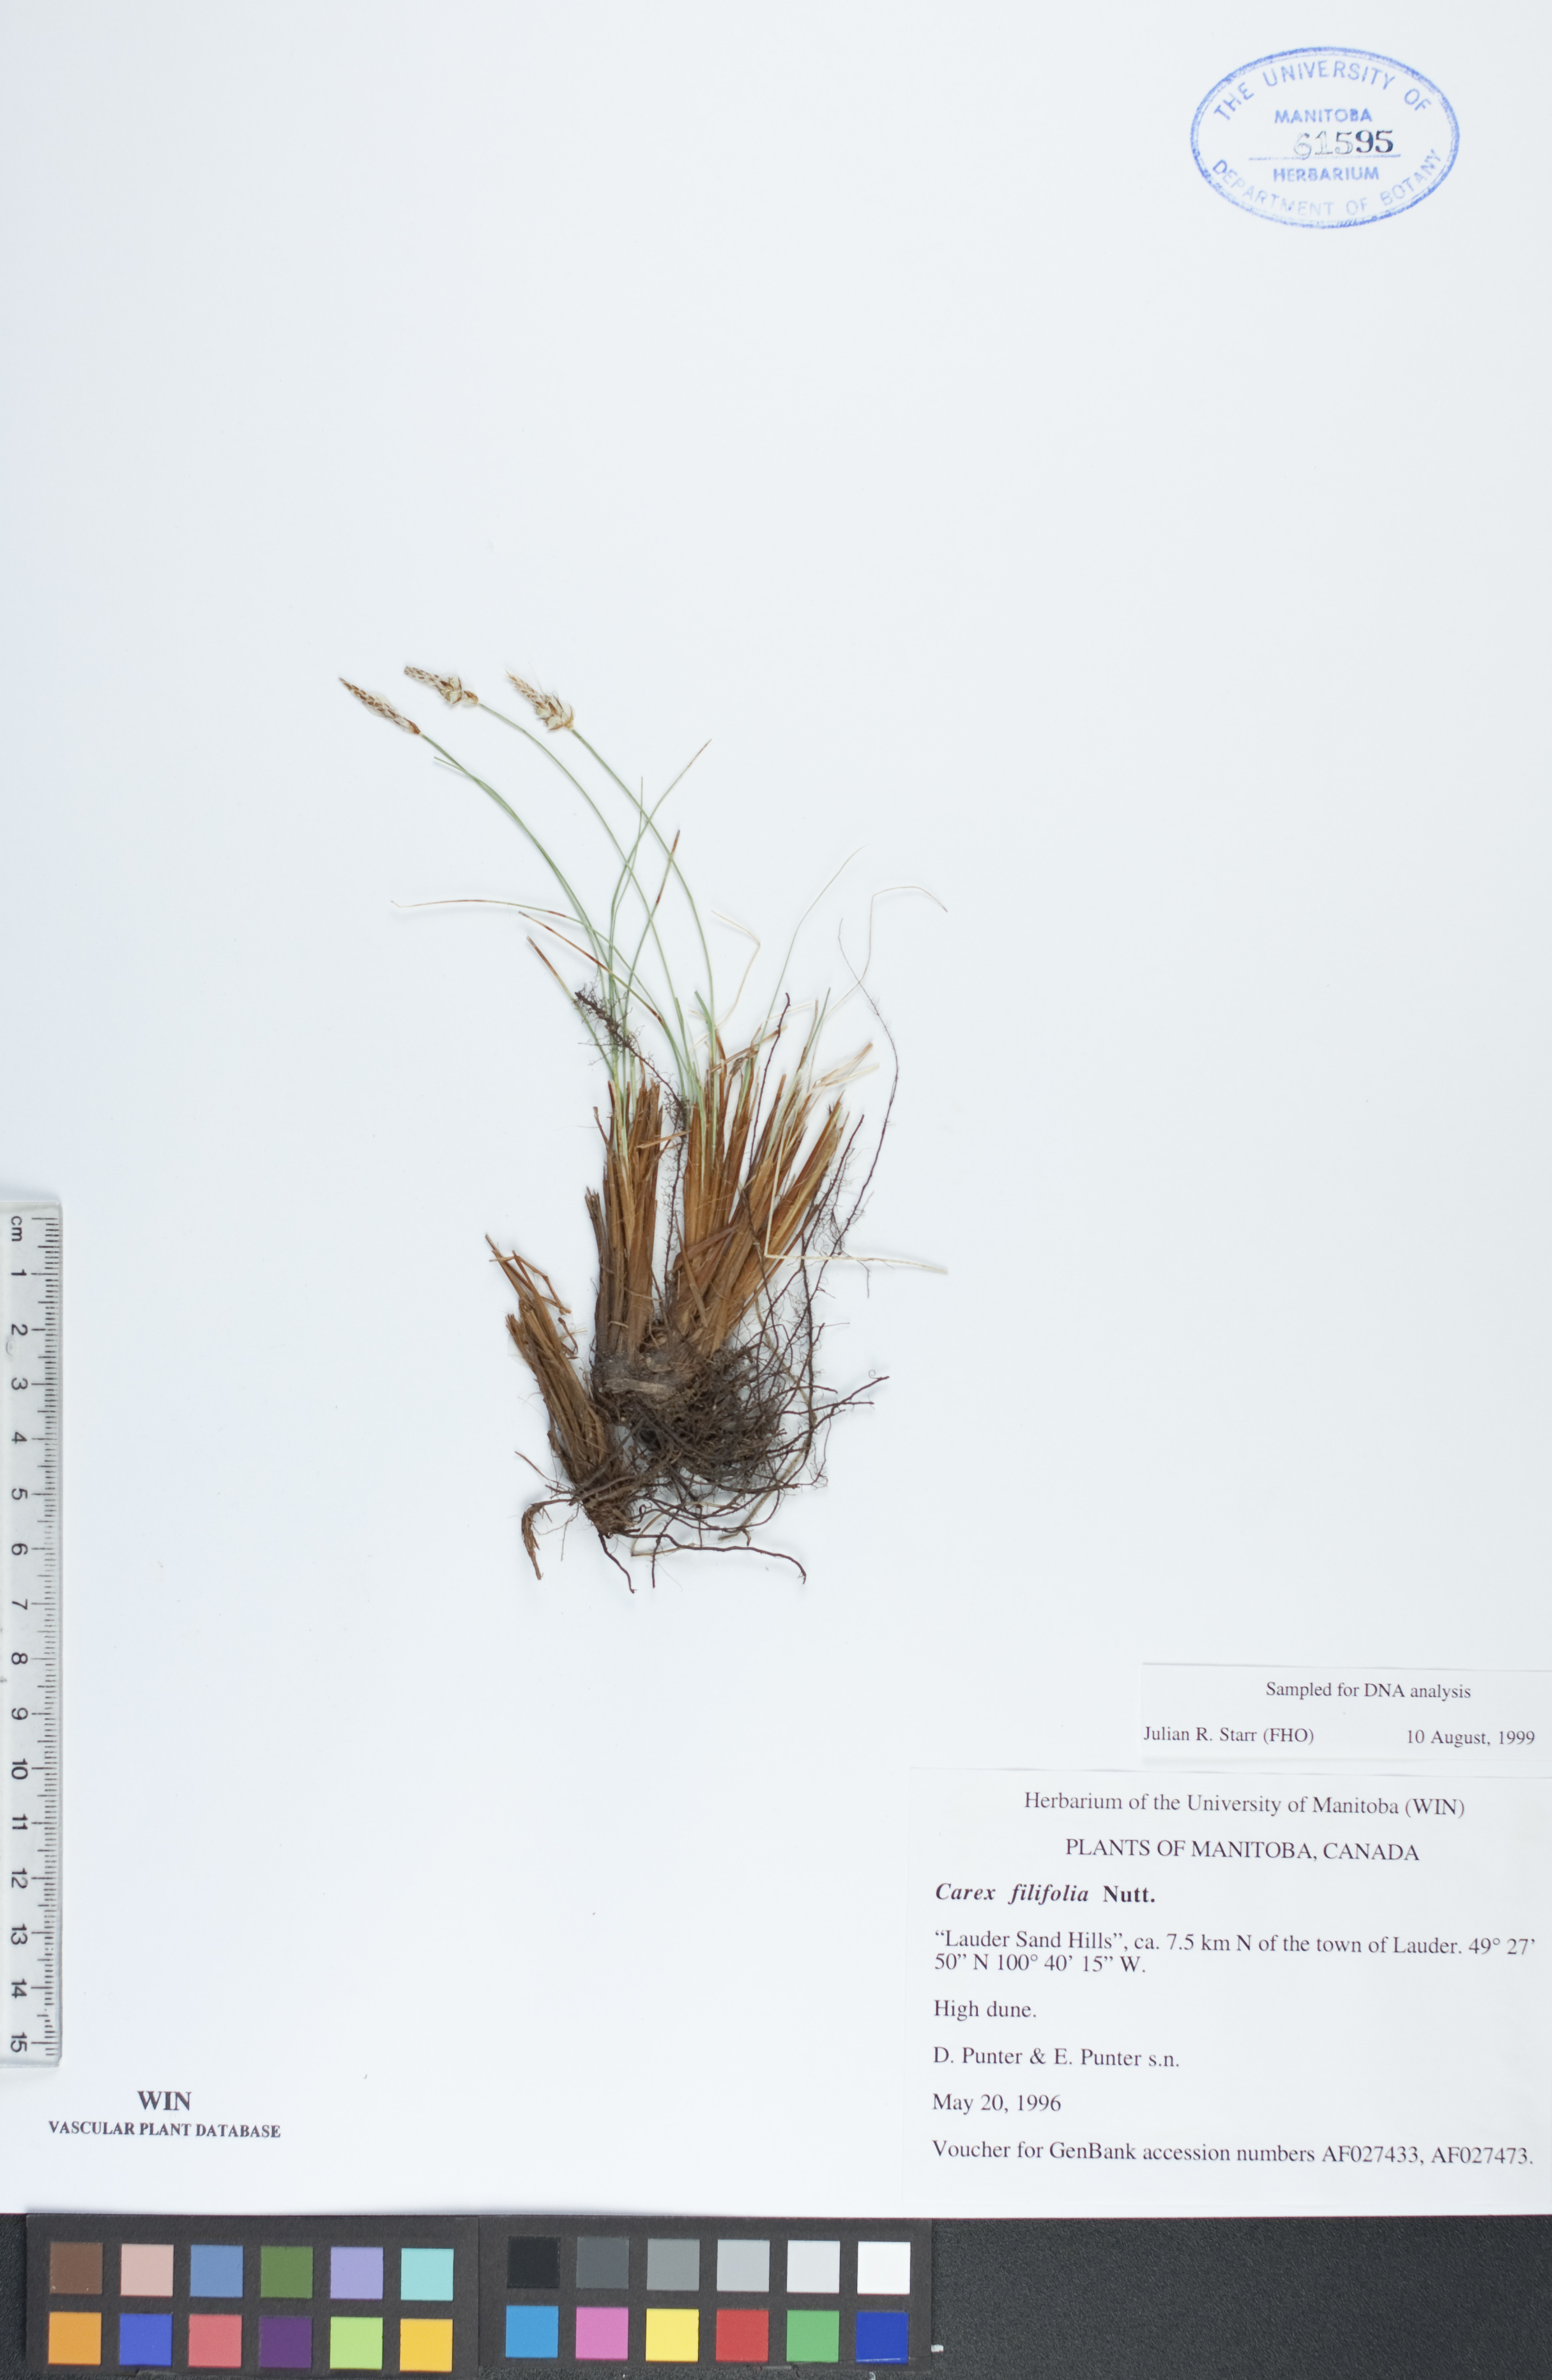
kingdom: Plantae
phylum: Tracheophyta
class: Liliopsida
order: Poales
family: Cyperaceae
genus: Carex
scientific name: Carex filifolia
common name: Threadleaf sedge
